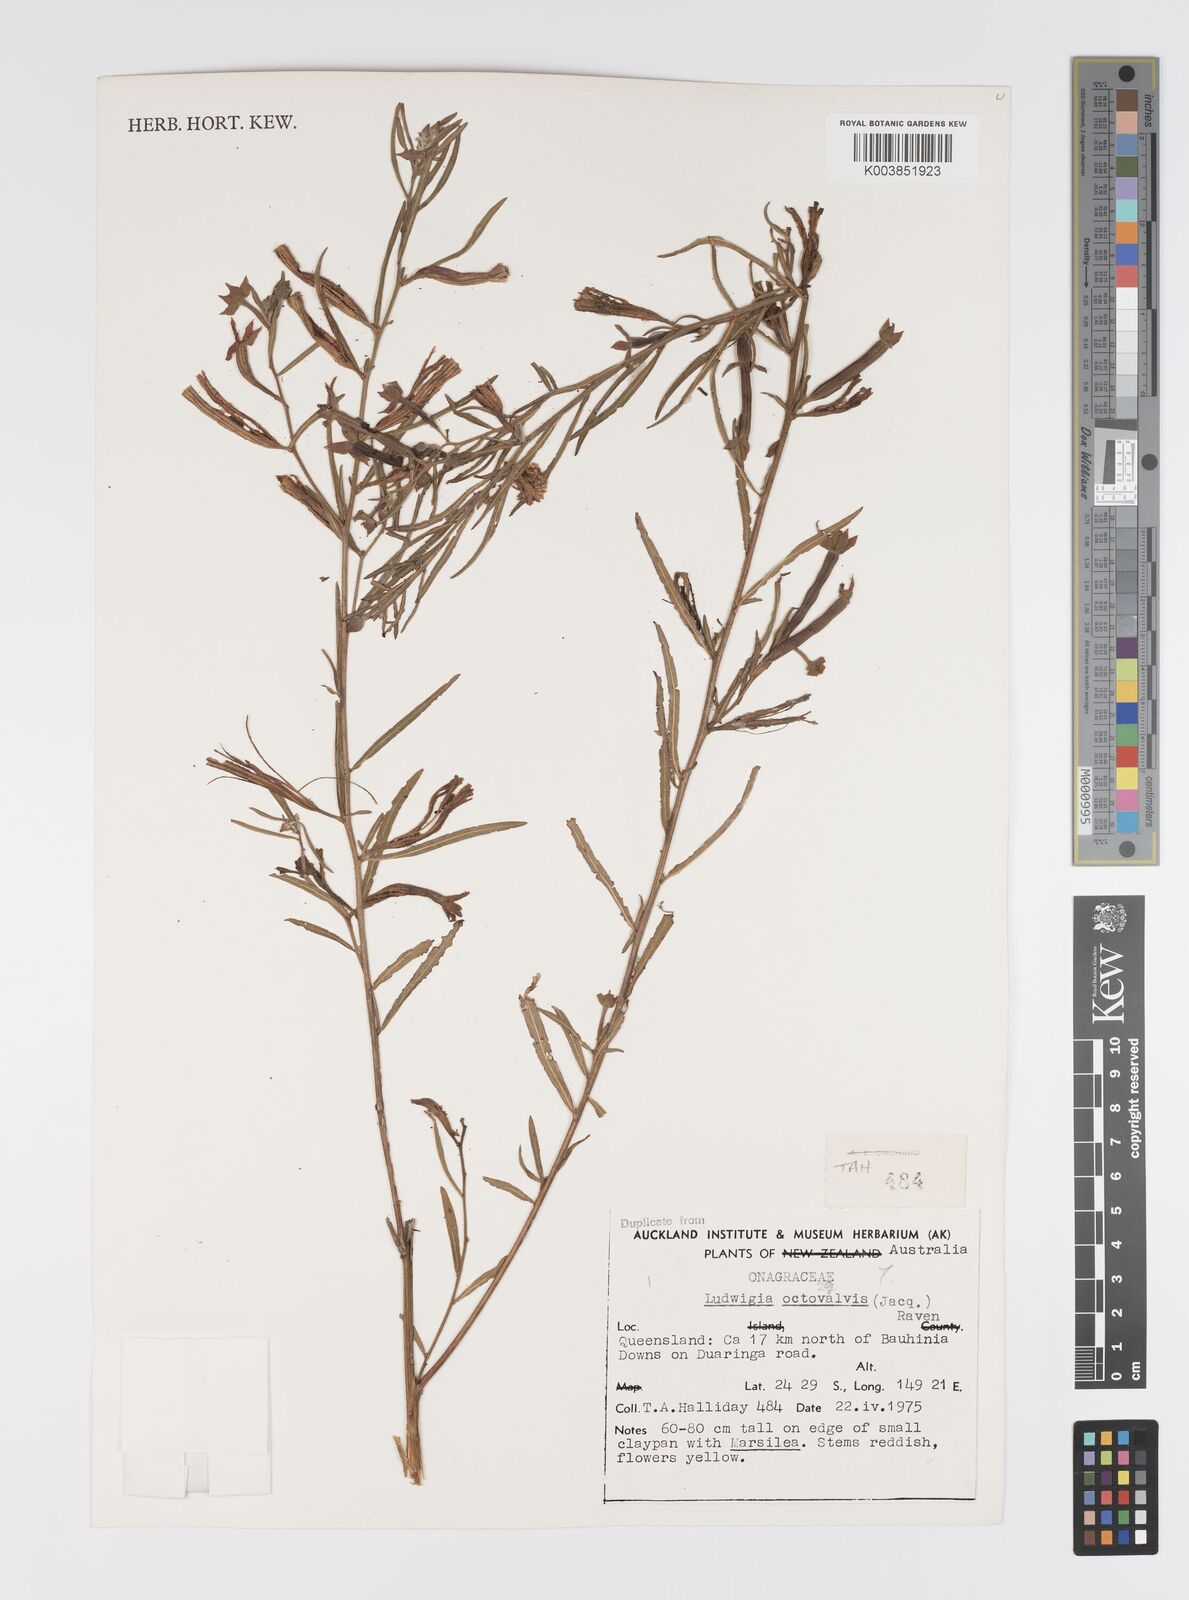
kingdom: Plantae
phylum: Tracheophyta
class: Magnoliopsida
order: Myrtales
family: Onagraceae
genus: Ludwigia
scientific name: Ludwigia octovalvis
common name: Water-primrose
